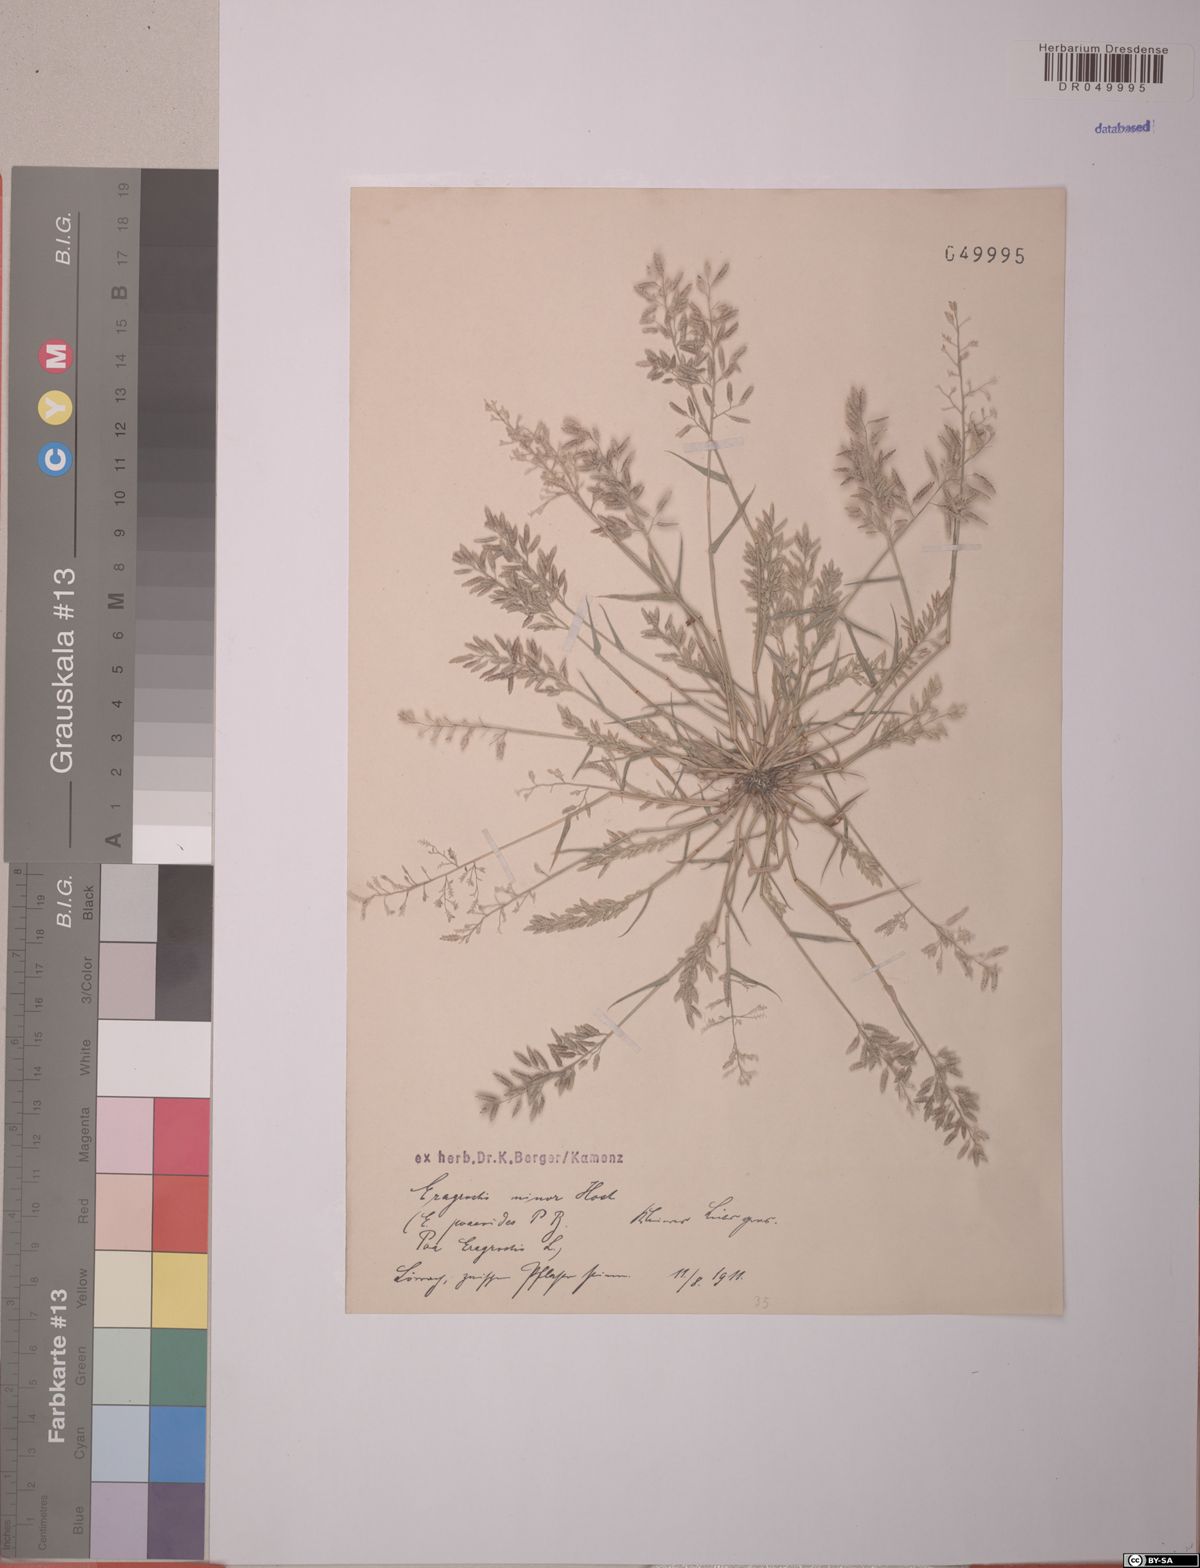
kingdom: Plantae
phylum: Tracheophyta
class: Liliopsida
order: Poales
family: Poaceae
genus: Eragrostis
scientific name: Eragrostis minor
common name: Small love-grass
